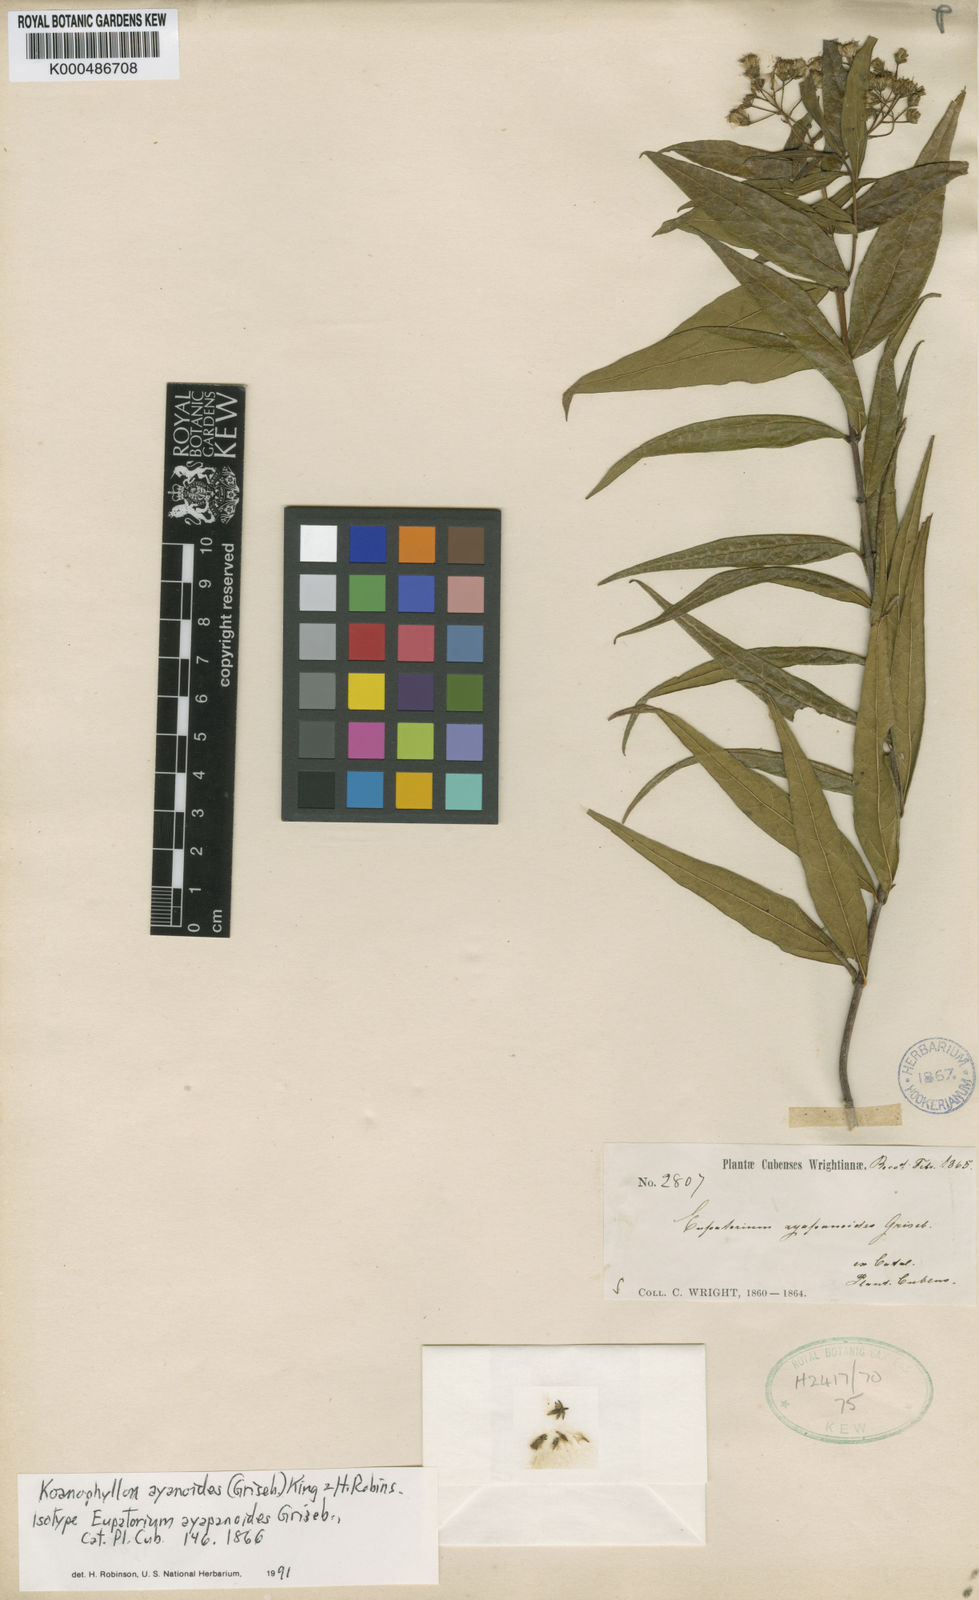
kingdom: Plantae
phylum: Tracheophyta
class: Magnoliopsida
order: Asterales
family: Asteraceae
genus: Koanophyllon
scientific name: Koanophyllon ayapanoides
